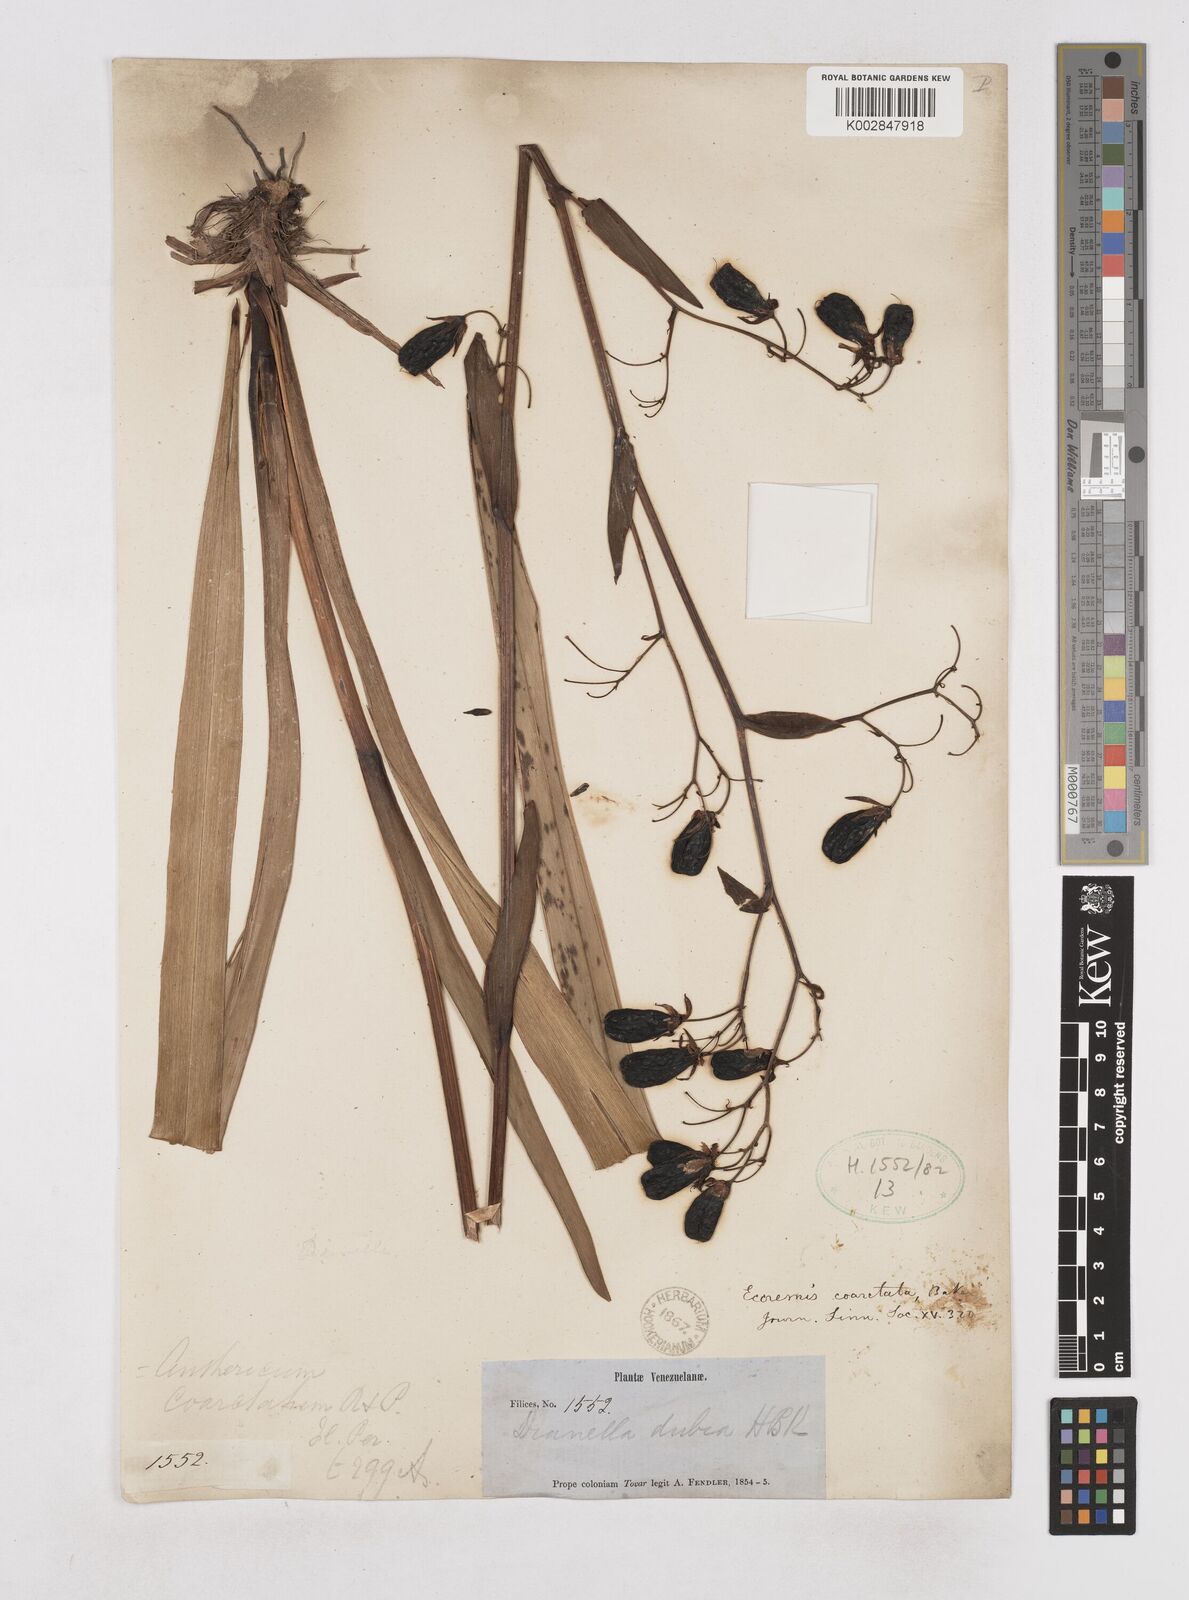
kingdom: Plantae
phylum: Tracheophyta
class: Liliopsida
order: Asparagales
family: Asphodelaceae
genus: Excremis
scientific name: Excremis coarctata
